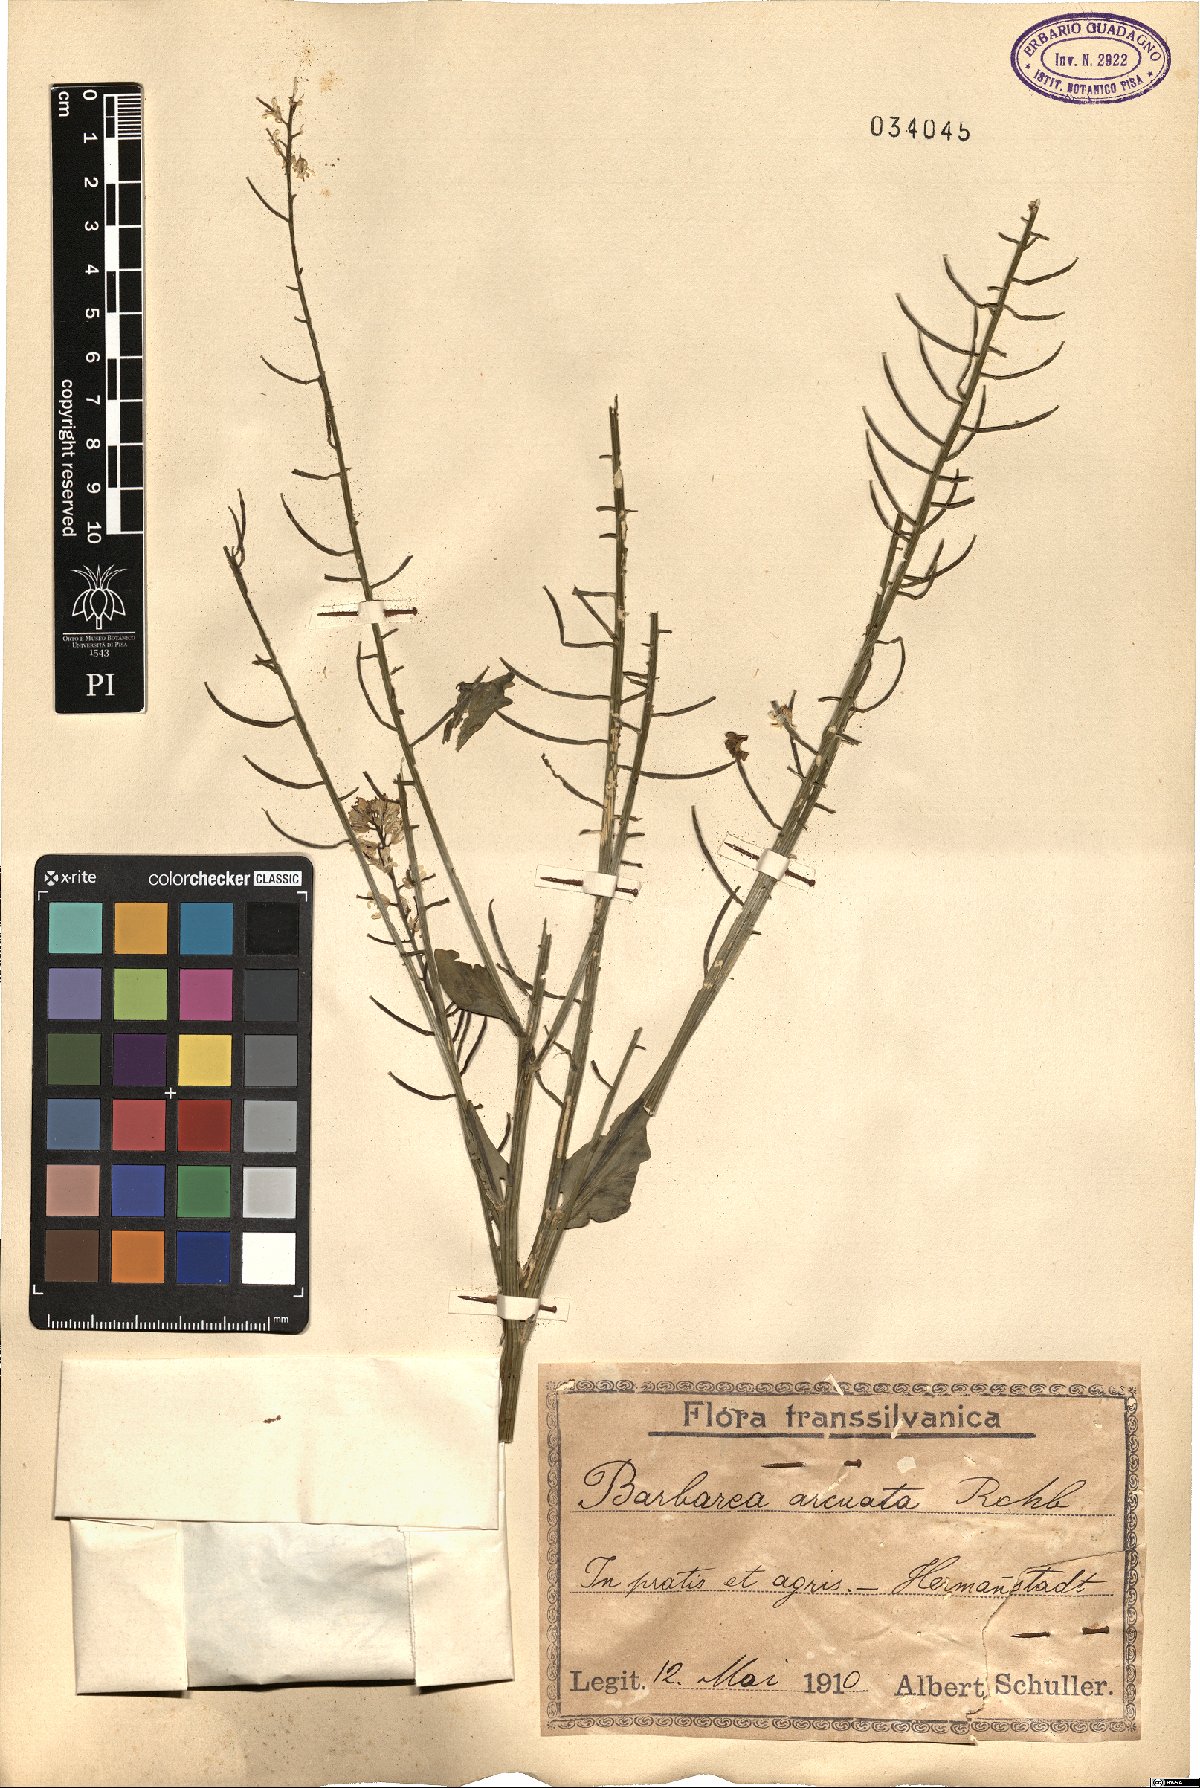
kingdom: Plantae
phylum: Tracheophyta
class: Magnoliopsida
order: Brassicales
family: Brassicaceae
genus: Barbarea
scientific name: Barbarea vulgaris
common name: Cressy-greens
